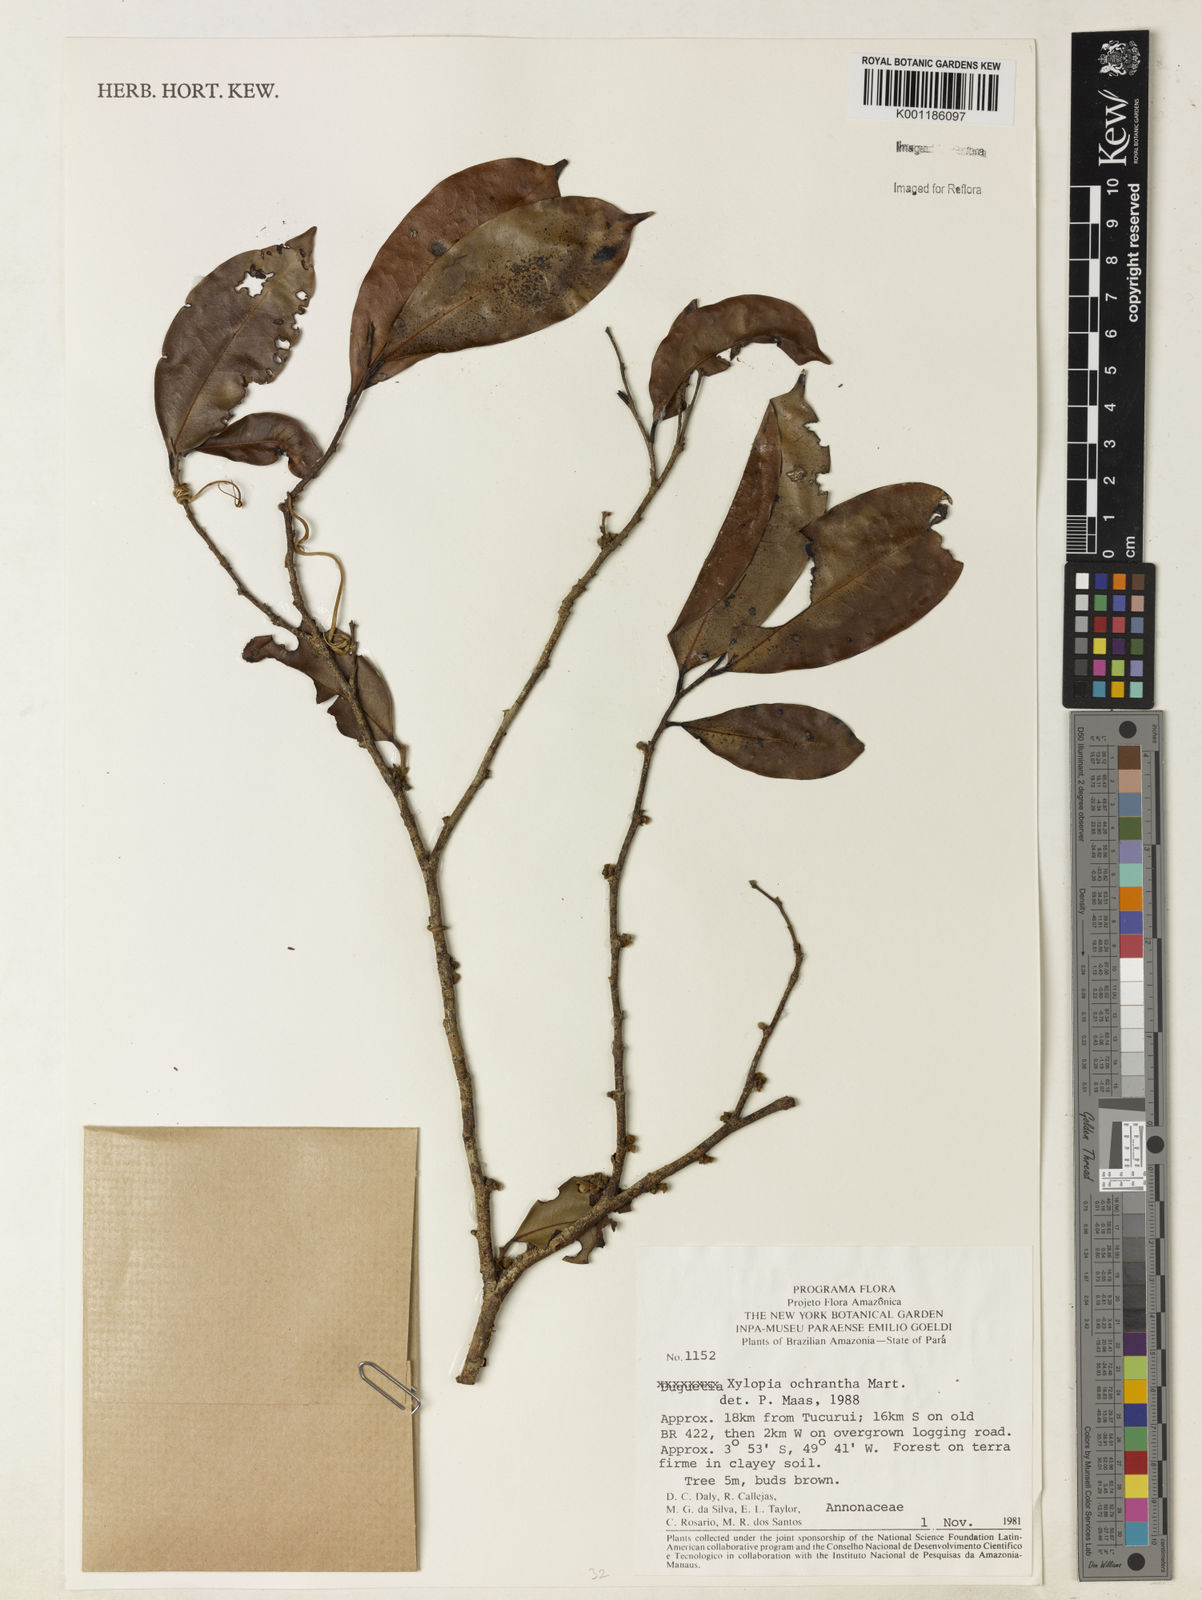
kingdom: Plantae
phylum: Tracheophyta
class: Magnoliopsida
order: Magnoliales
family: Annonaceae
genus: Xylopia
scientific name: Xylopia ochrantha
